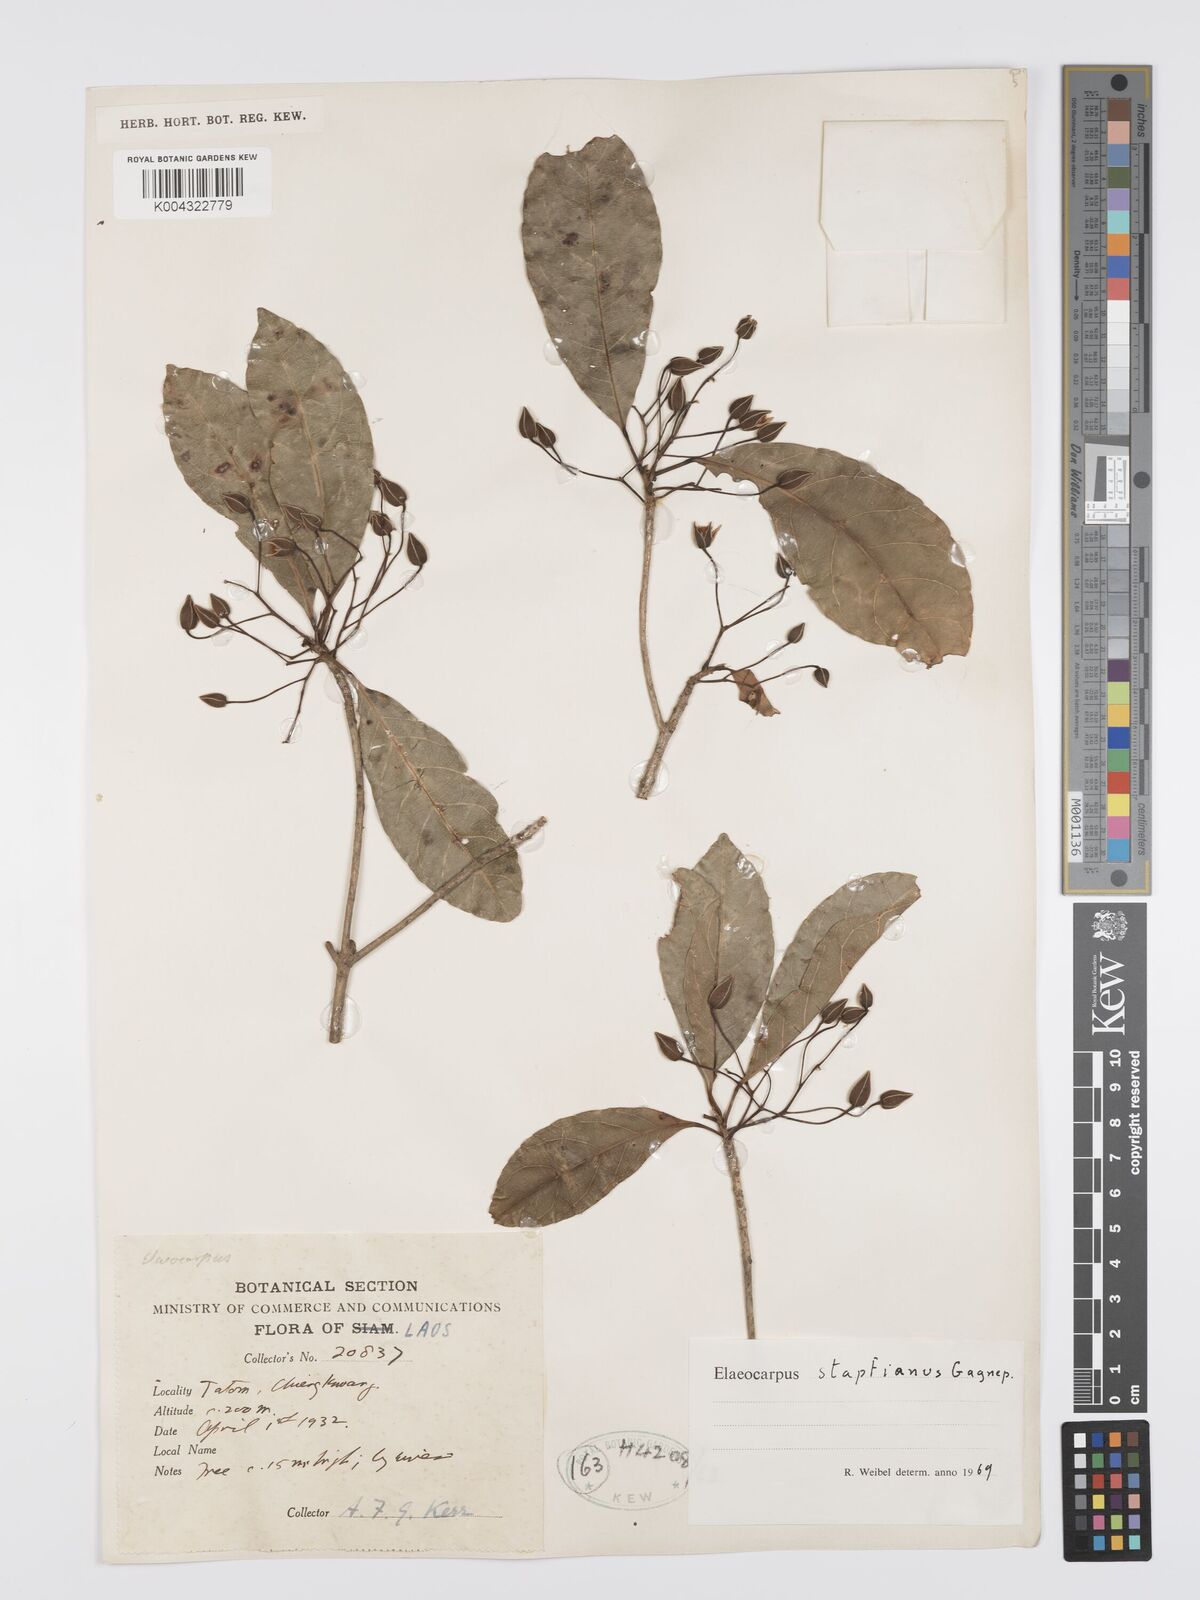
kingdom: Plantae
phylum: Tracheophyta
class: Magnoliopsida
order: Oxalidales
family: Elaeocarpaceae
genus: Elaeocarpus
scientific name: Elaeocarpus stapfianus
